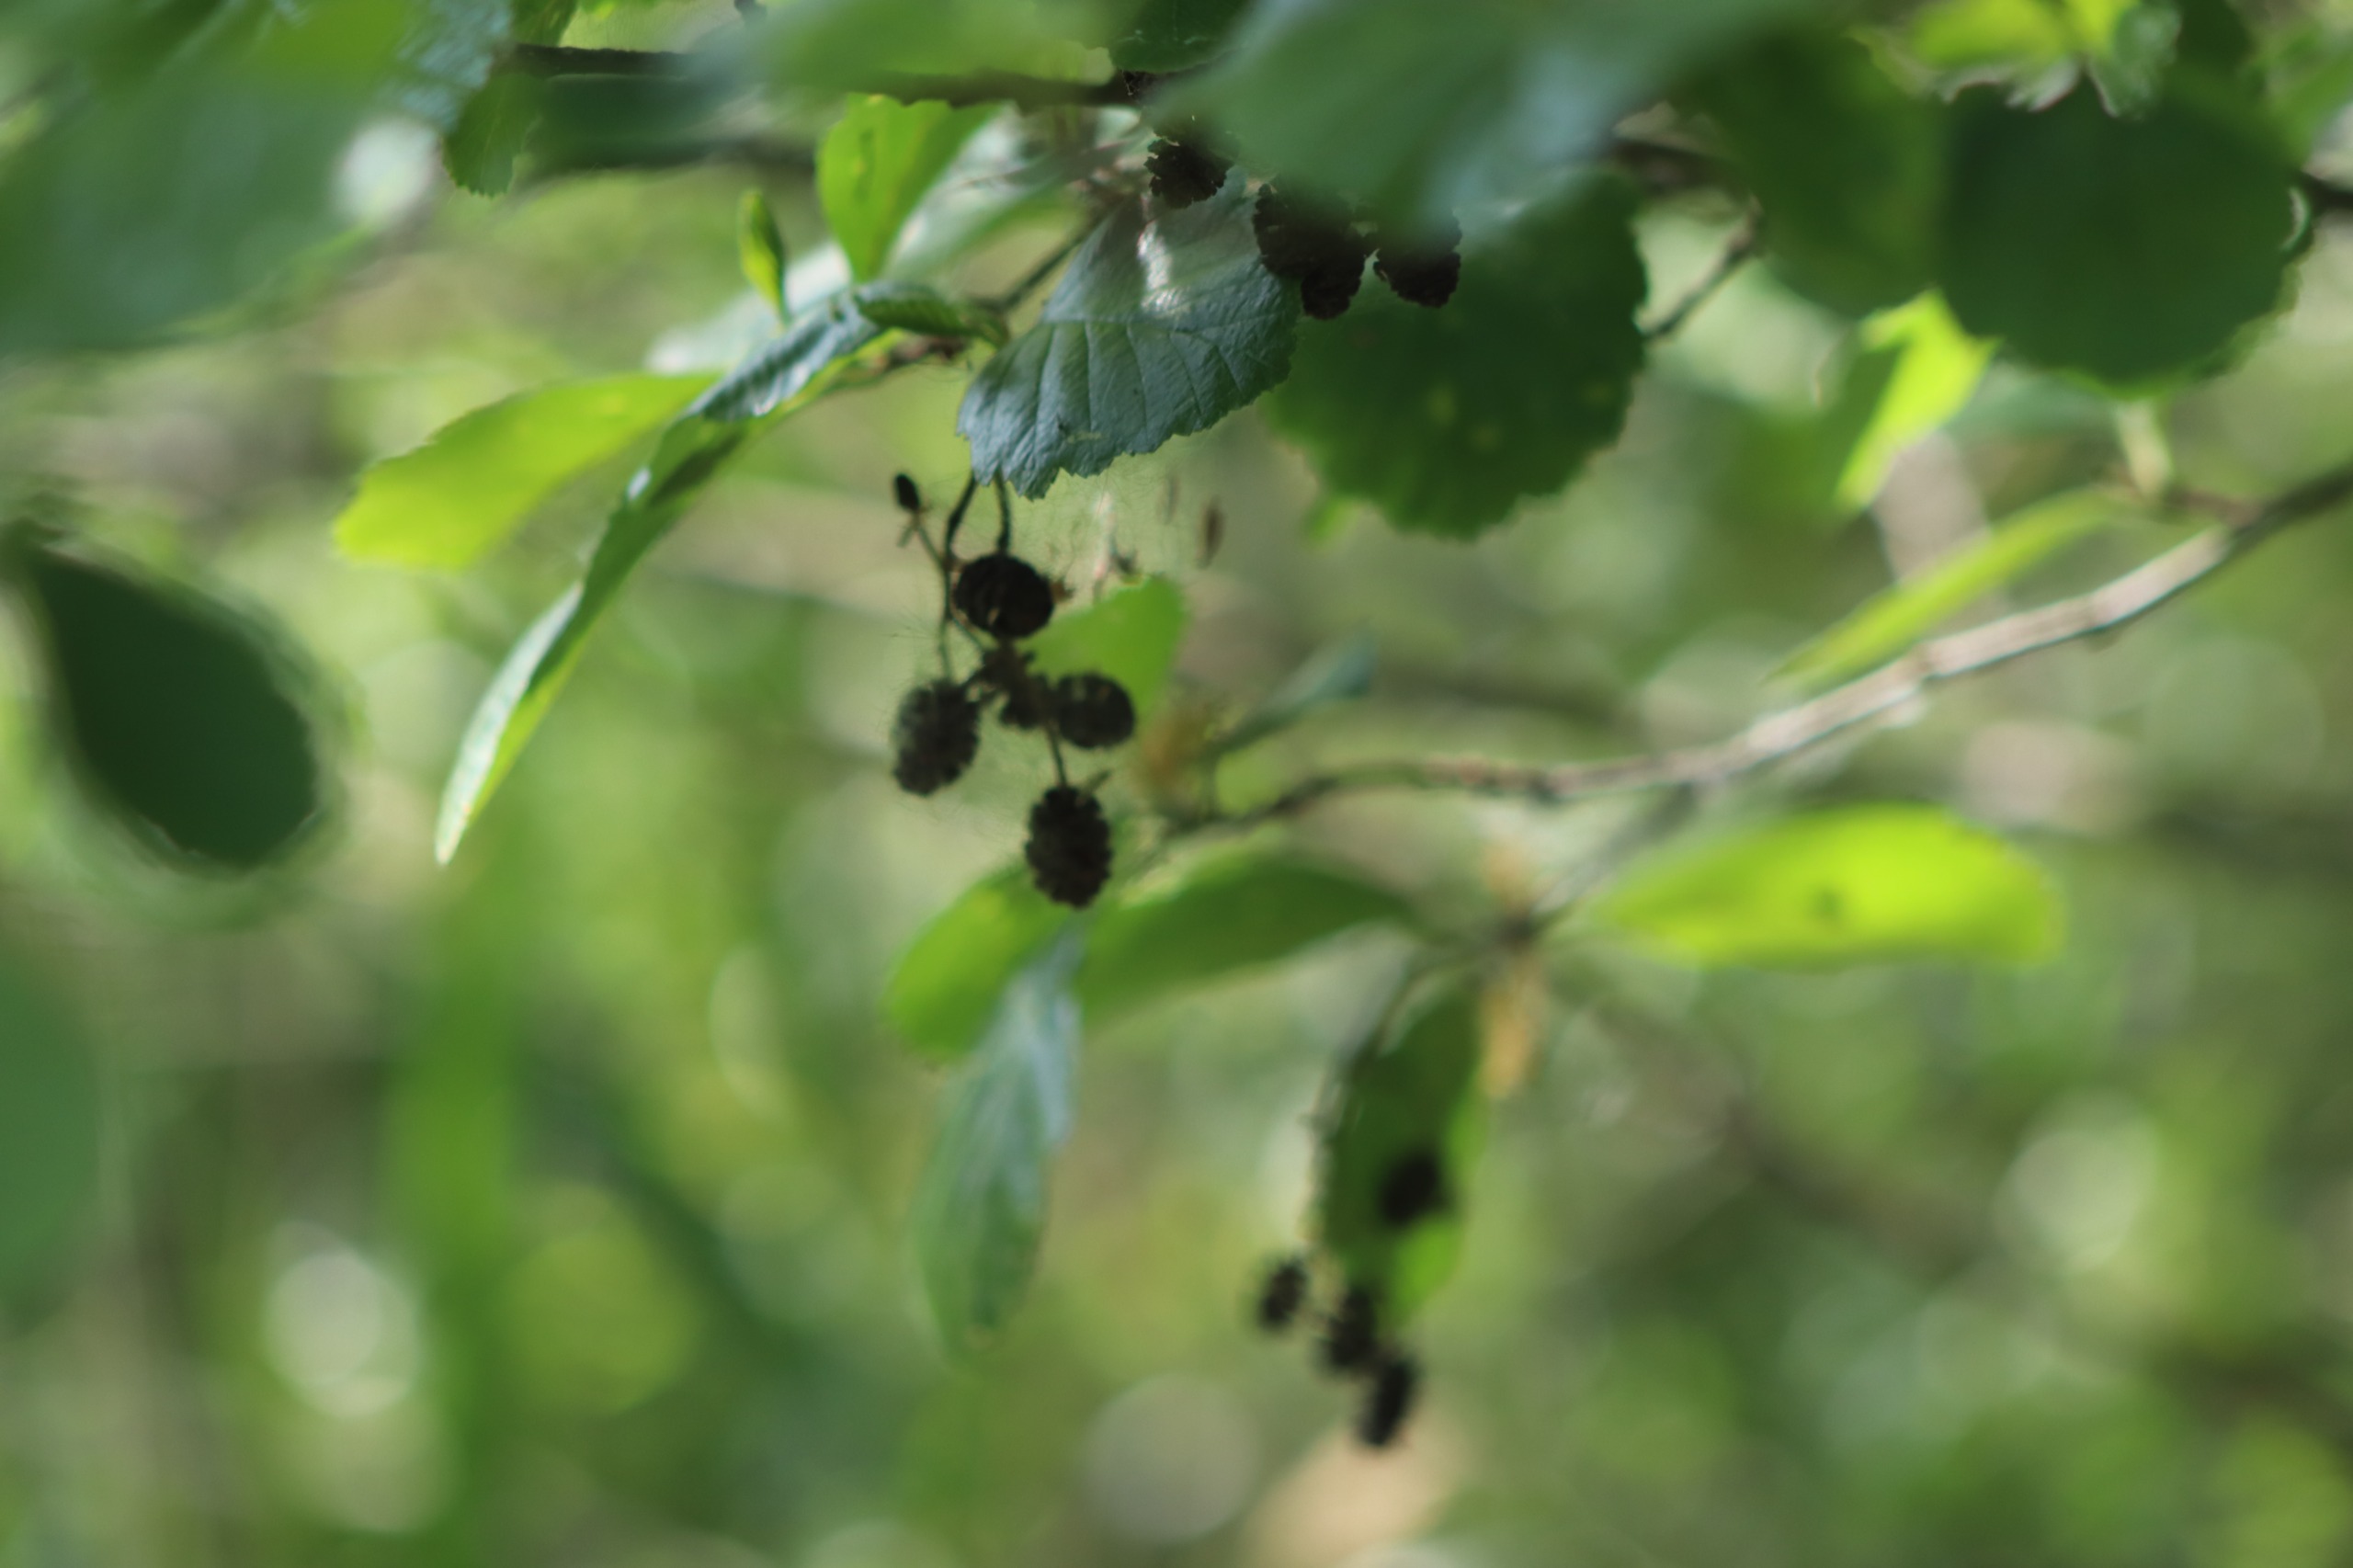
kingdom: Plantae
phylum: Tracheophyta
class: Magnoliopsida
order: Fagales
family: Betulaceae
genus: Alnus
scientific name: Alnus glutinosa
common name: Rød-el
